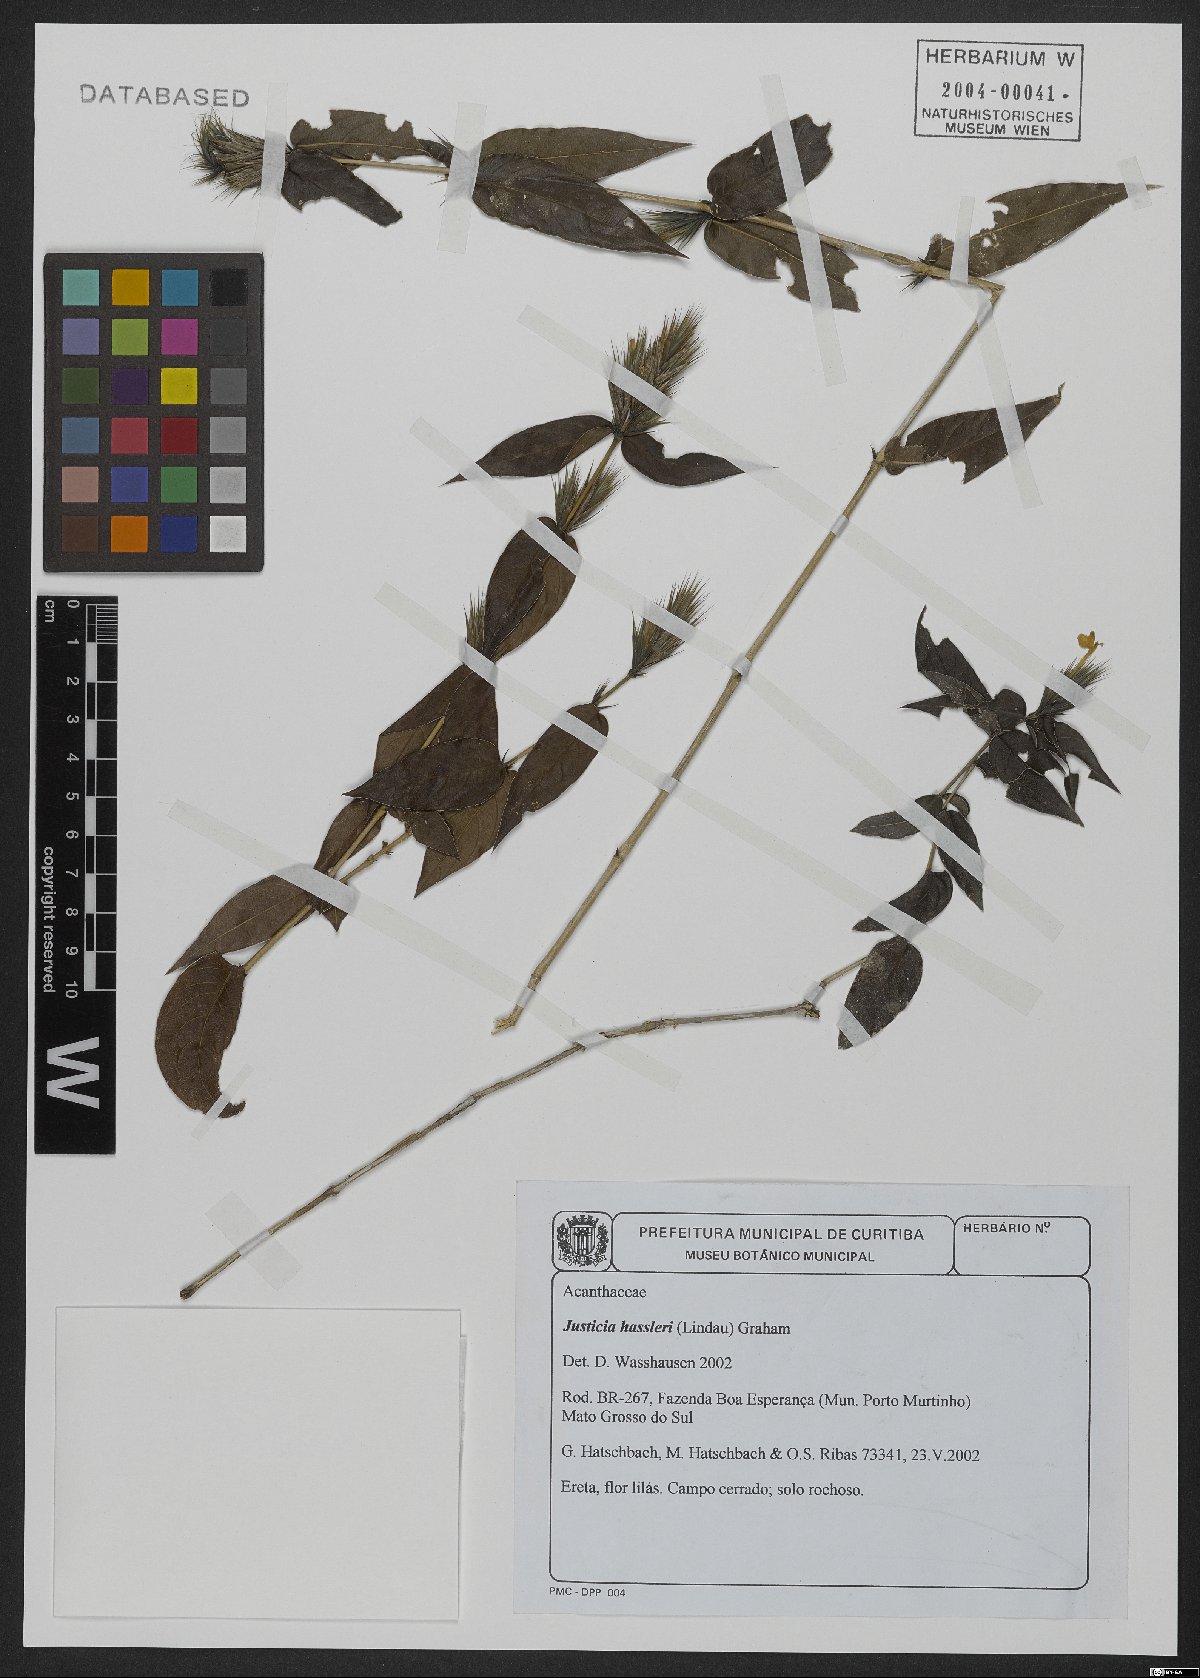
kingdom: Plantae
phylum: Tracheophyta
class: Magnoliopsida
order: Lamiales
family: Acanthaceae
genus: Justicia
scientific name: Justicia hassleri
